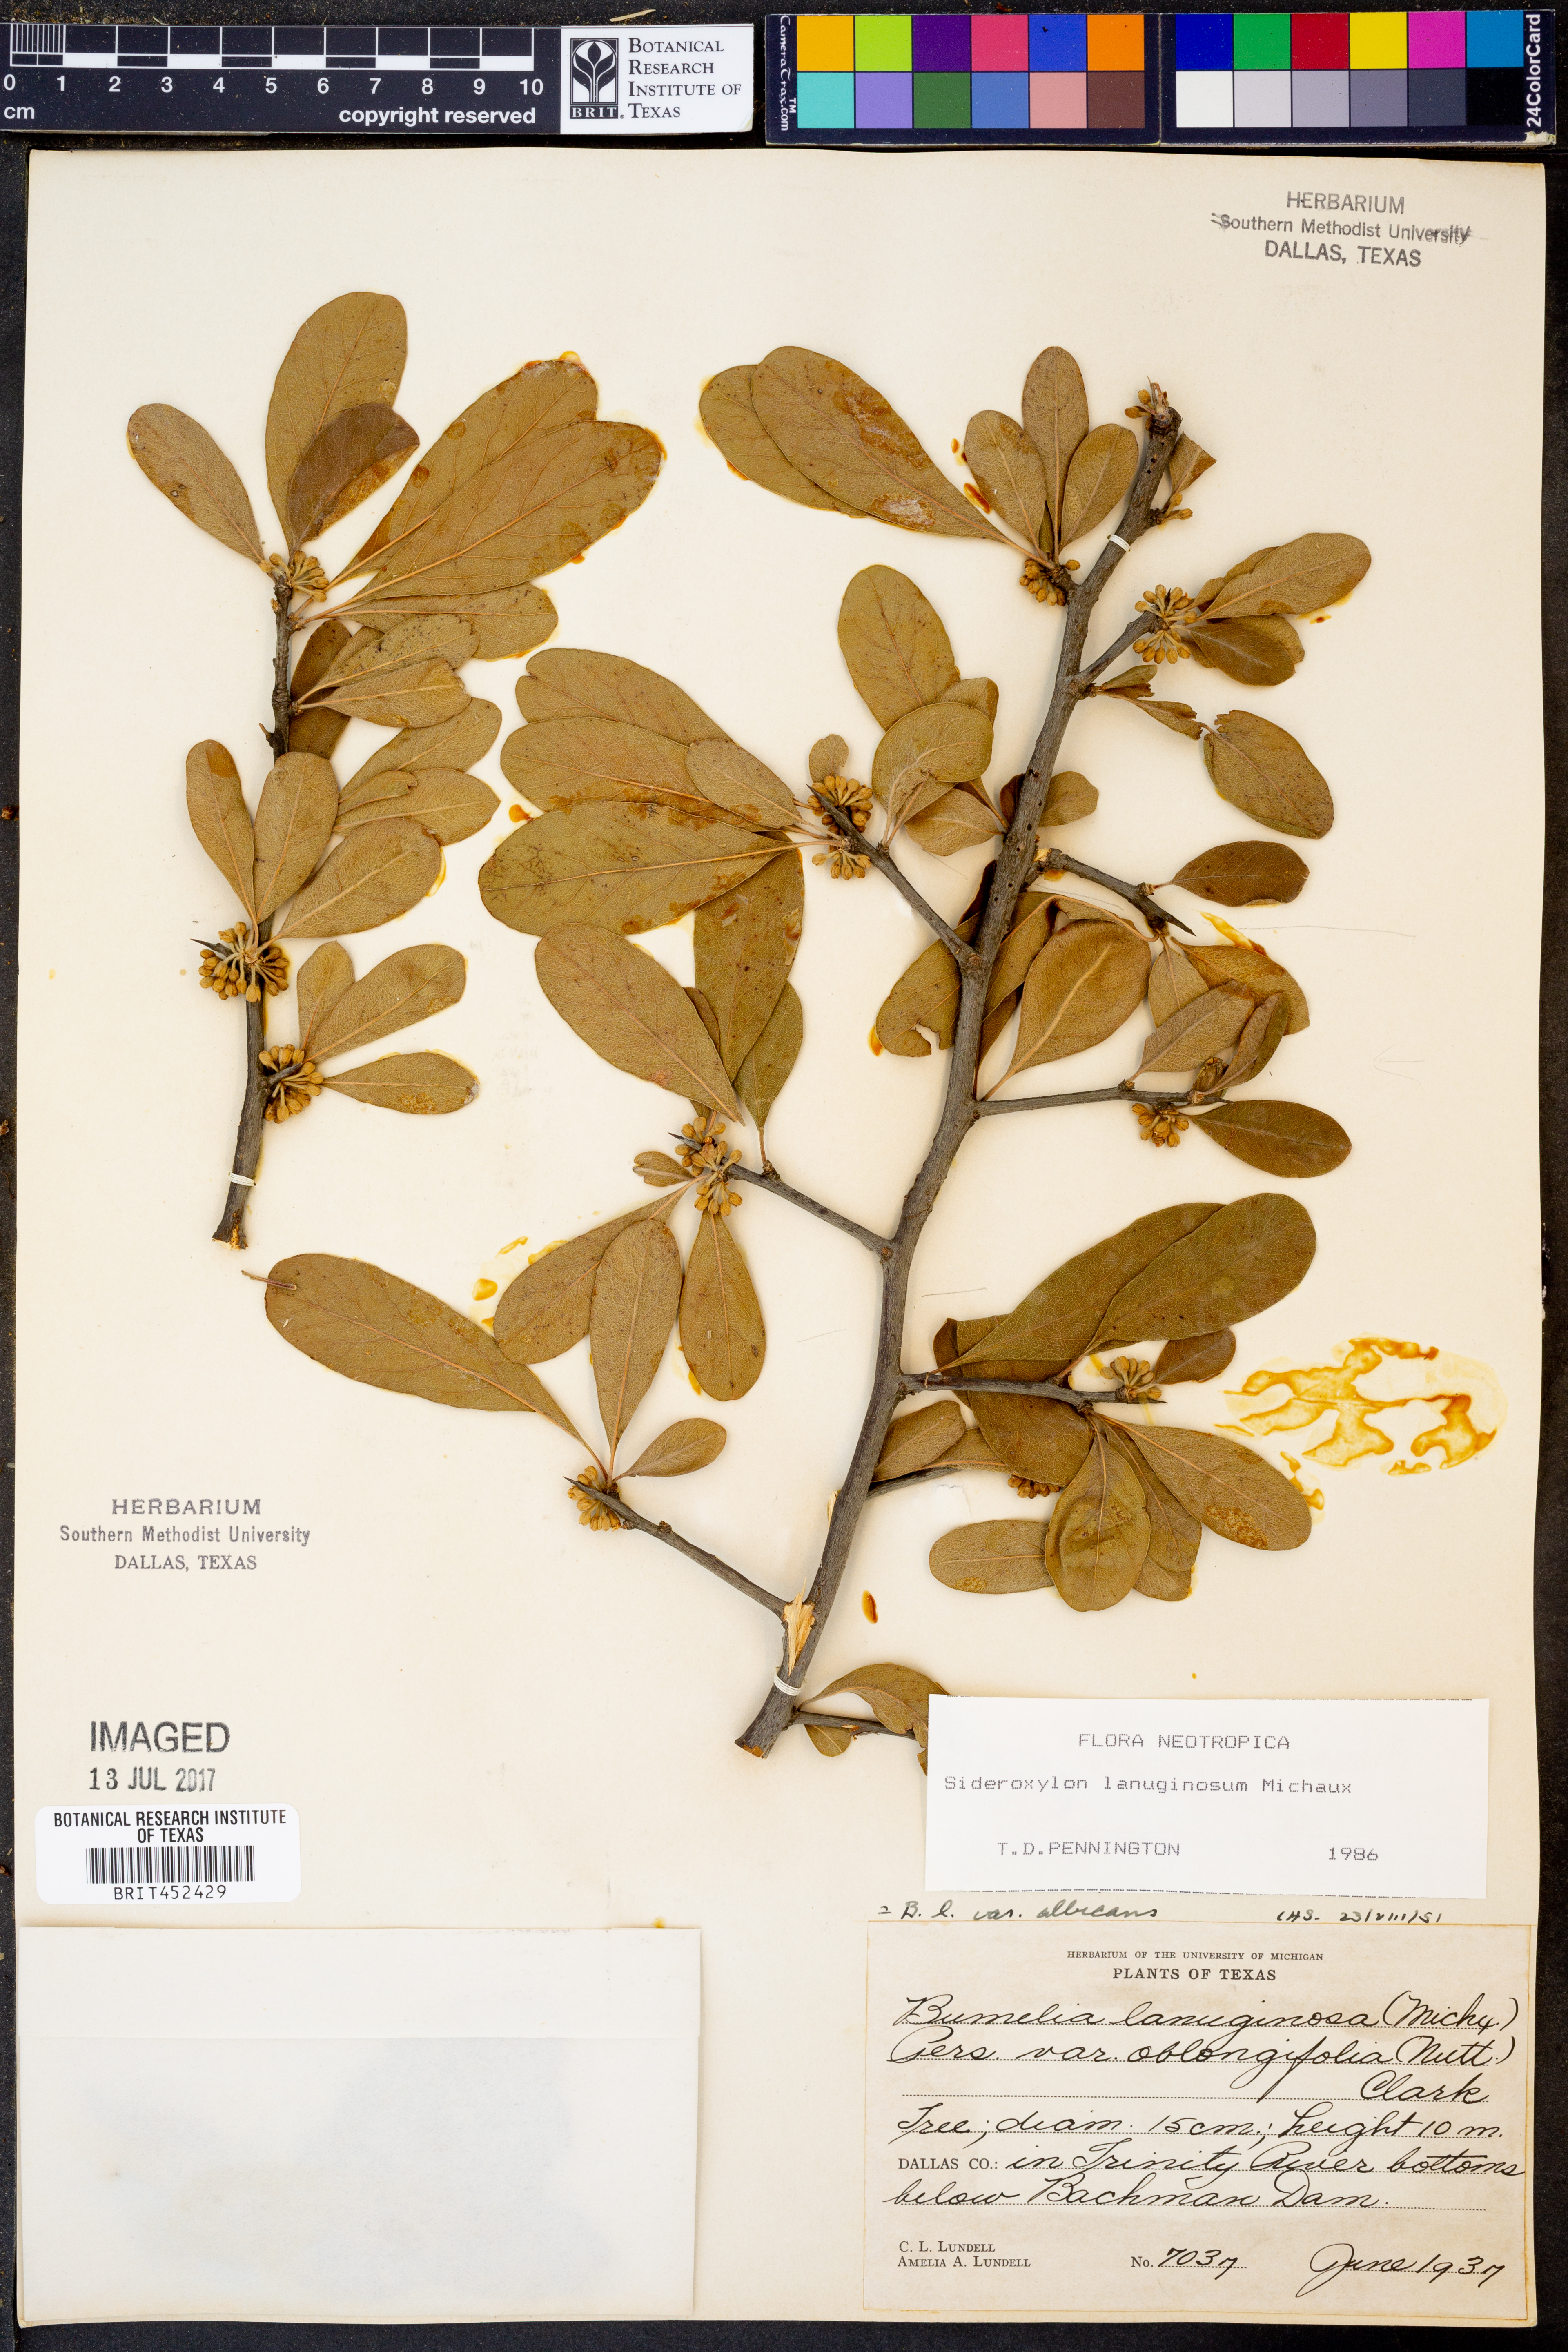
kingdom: Plantae
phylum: Tracheophyta
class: Magnoliopsida
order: Ericales
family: Sapotaceae
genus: Sideroxylon
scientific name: Sideroxylon lanuginosum
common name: Chittamwood
